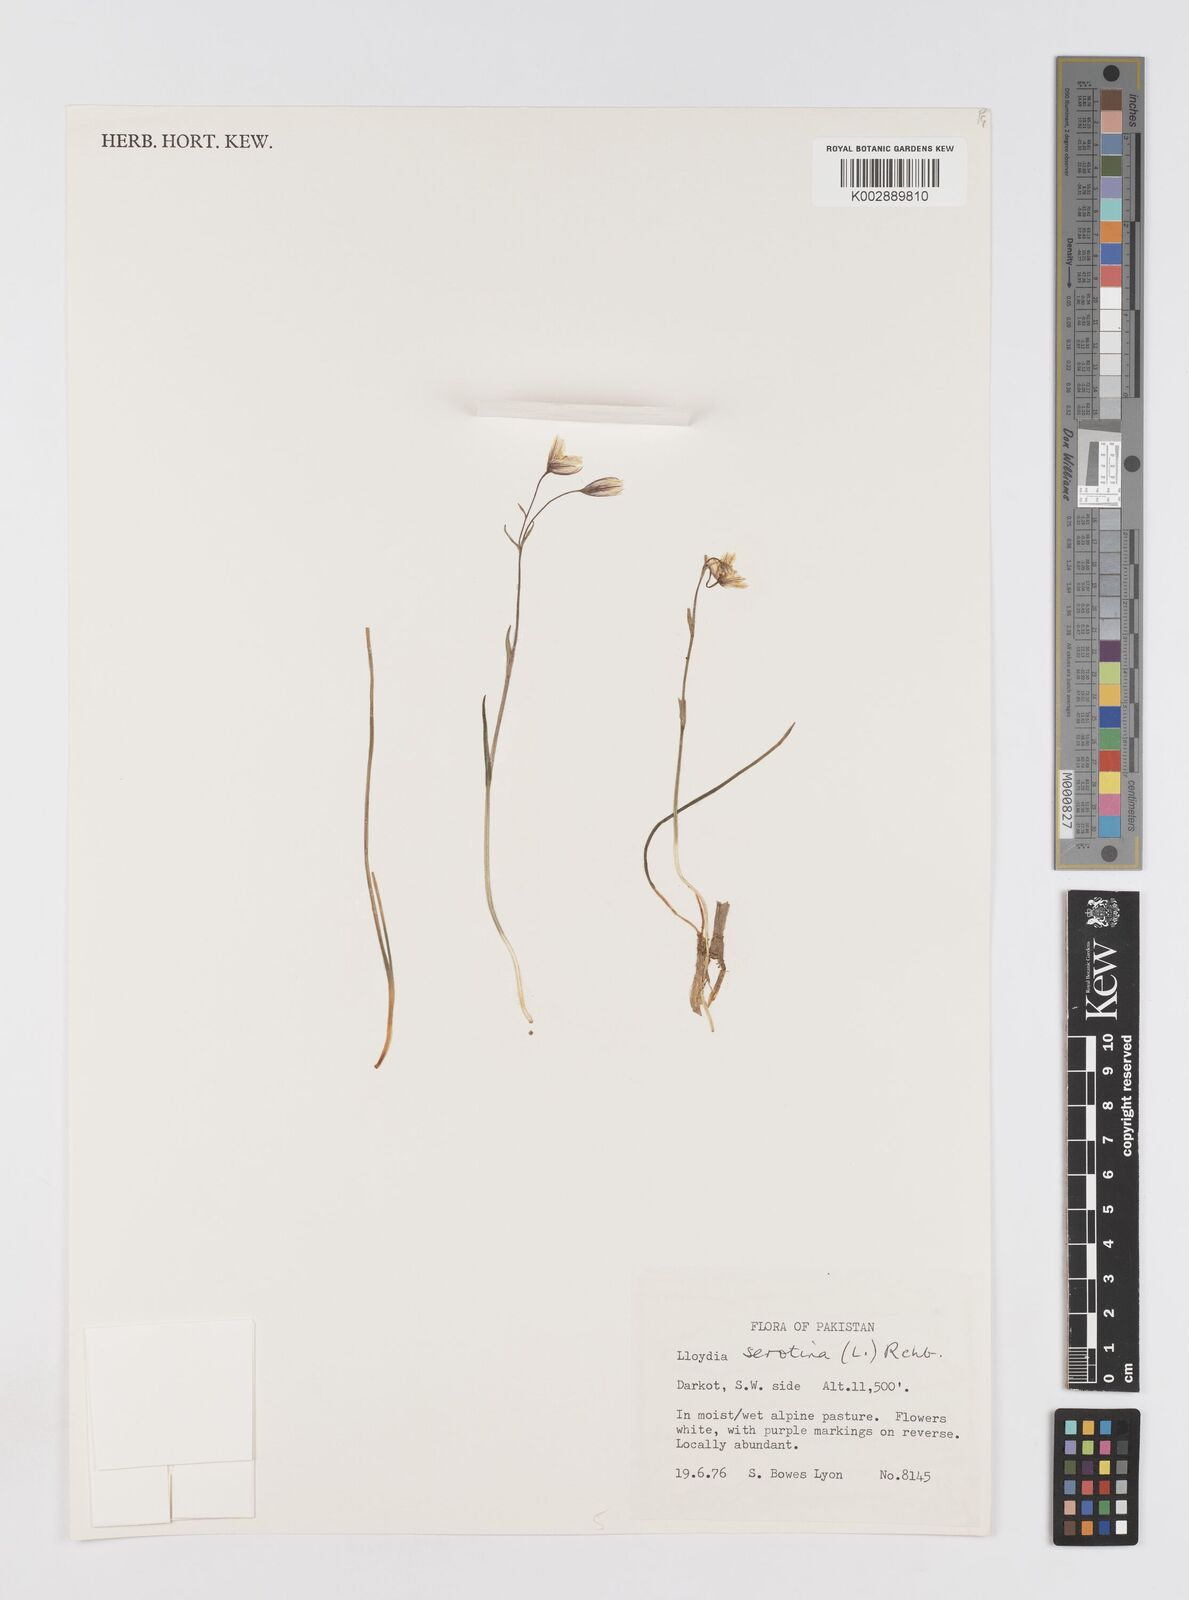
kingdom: Plantae
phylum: Tracheophyta
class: Liliopsida
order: Liliales
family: Liliaceae
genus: Gagea
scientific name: Gagea serotina
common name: Snowdon lily
